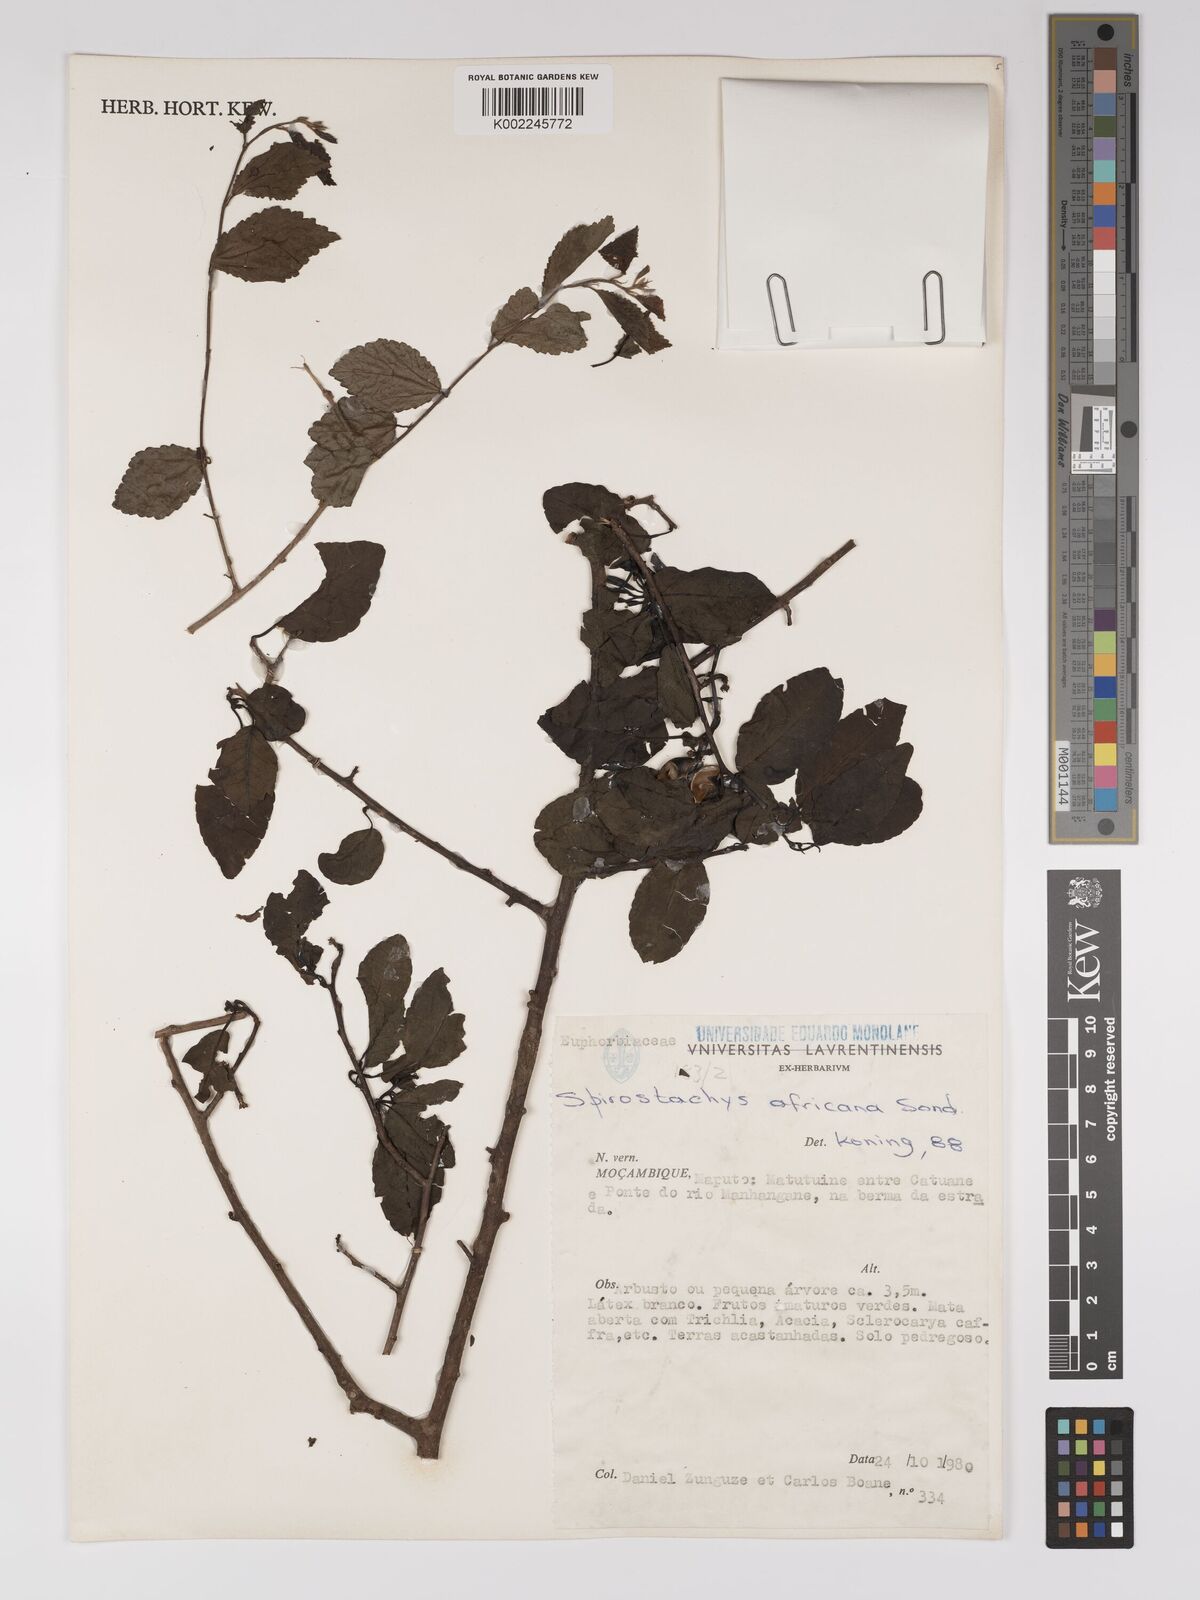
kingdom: Plantae
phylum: Tracheophyta
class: Magnoliopsida
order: Malpighiales
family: Euphorbiaceae
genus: Spirostachys
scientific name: Spirostachys africana
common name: Tamboti
